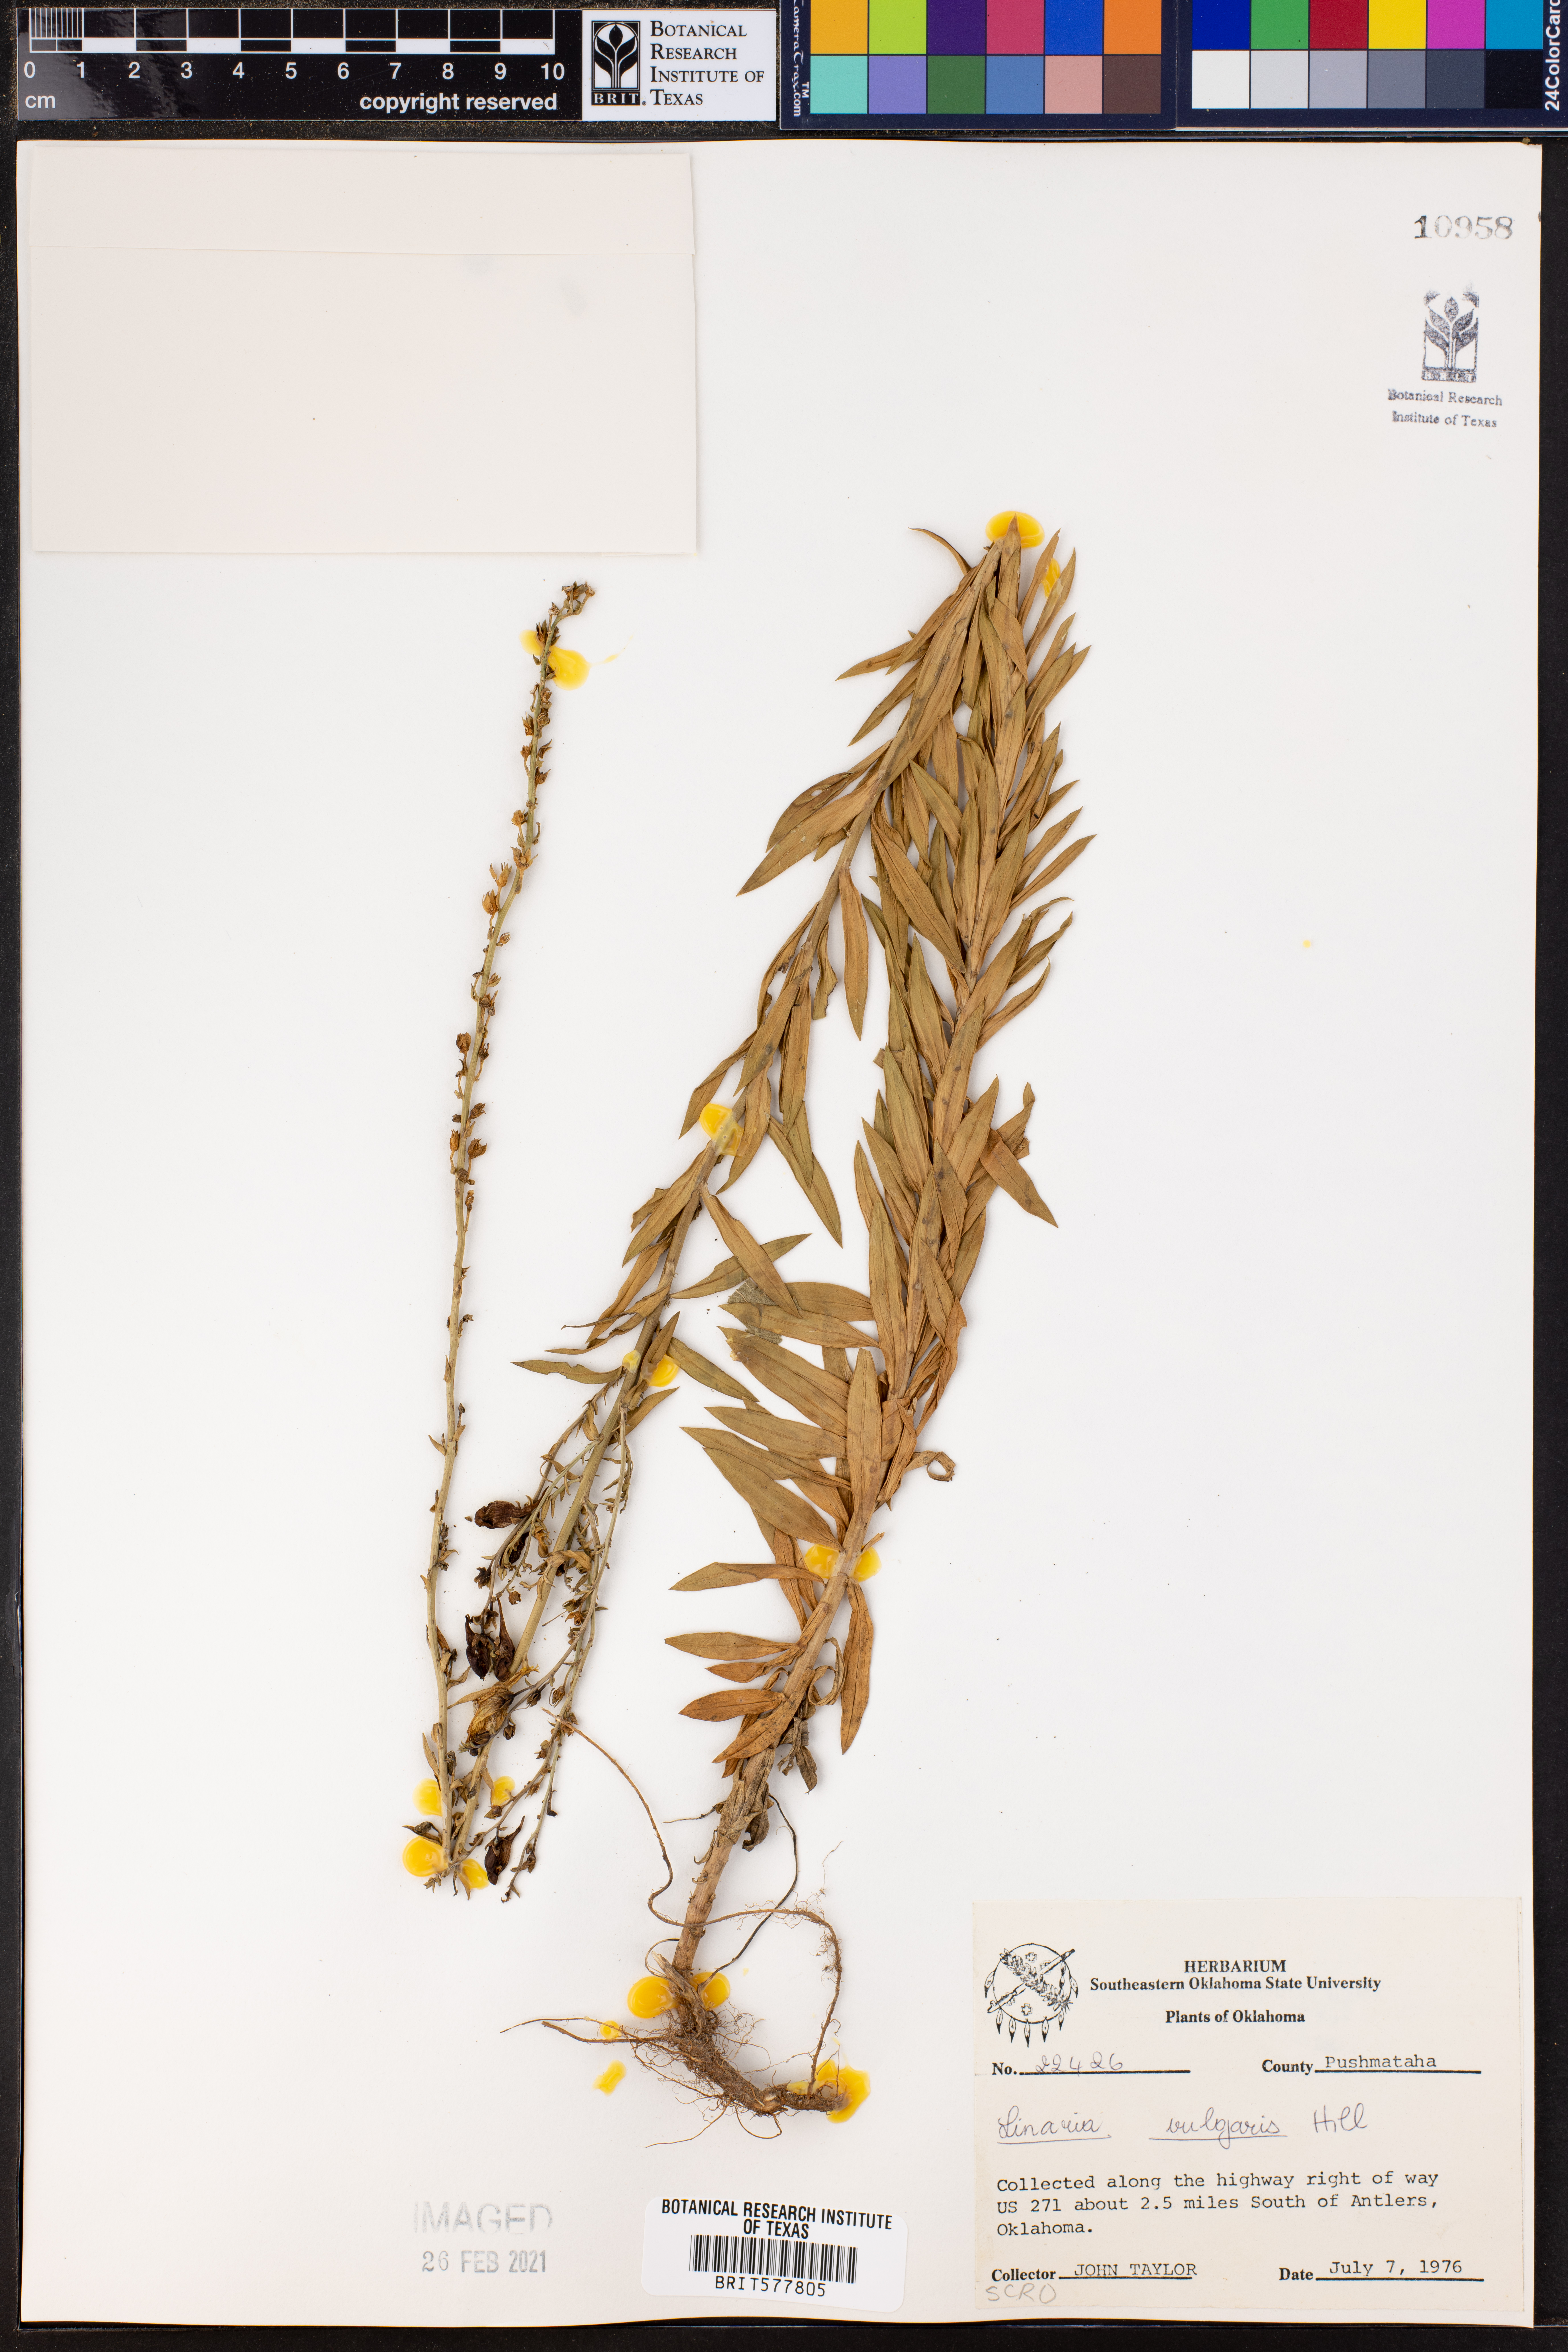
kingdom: Plantae
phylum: Tracheophyta
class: Magnoliopsida
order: Lamiales
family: Plantaginaceae
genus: Linaria
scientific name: Linaria vulgaris
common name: Butter and eggs
